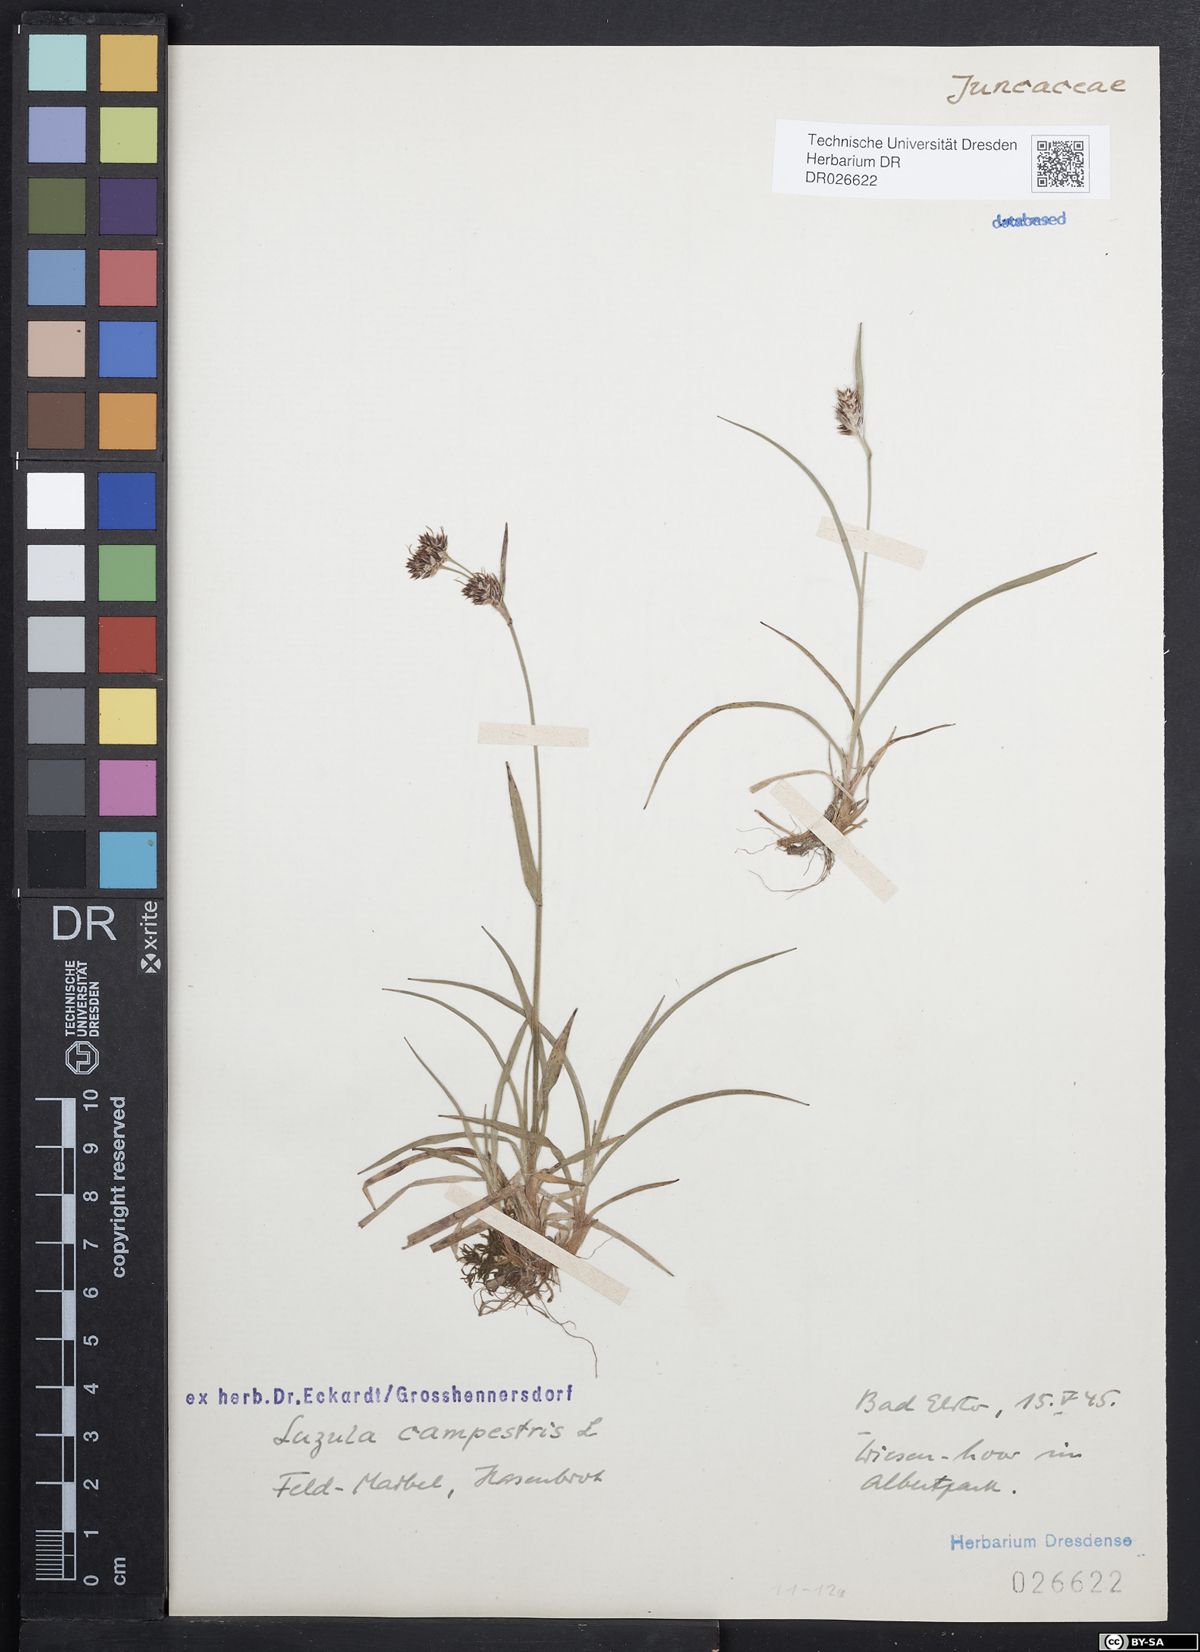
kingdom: Plantae
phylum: Tracheophyta
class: Liliopsida
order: Poales
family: Juncaceae
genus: Luzula
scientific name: Luzula campestris
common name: Field wood-rush
